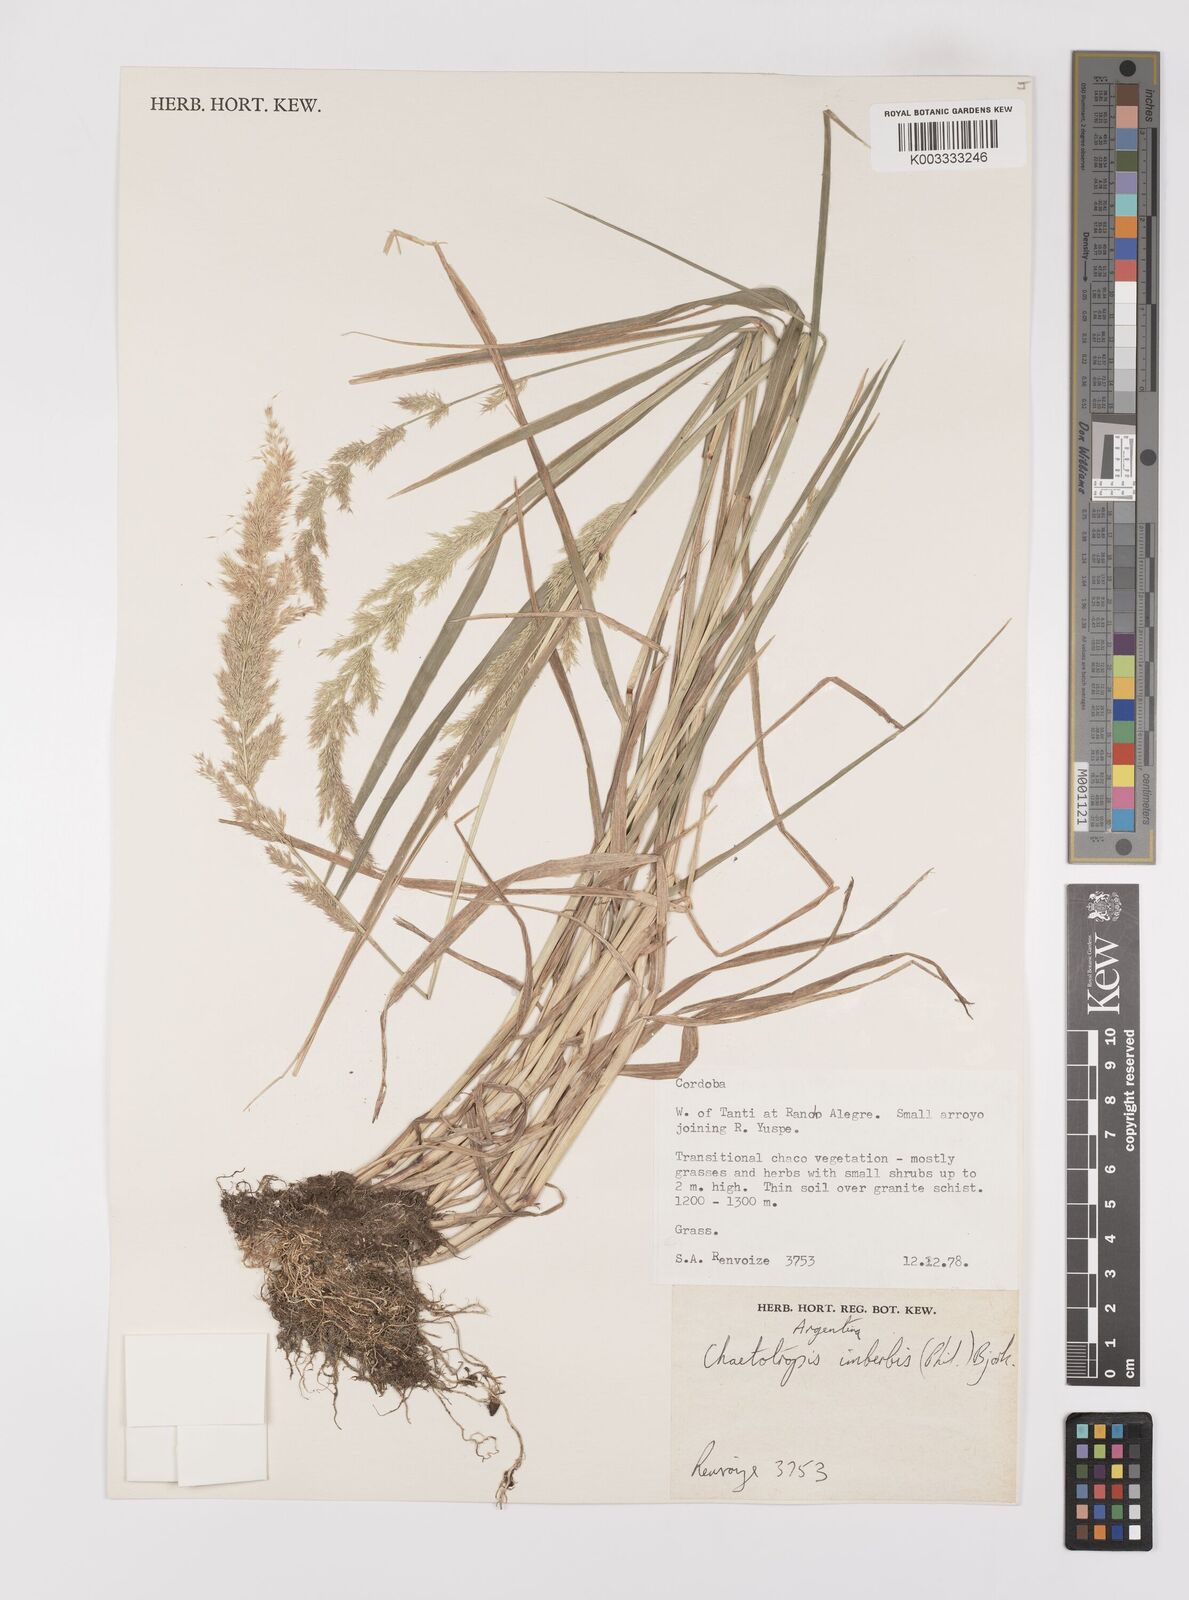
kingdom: Plantae
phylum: Tracheophyta
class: Liliopsida
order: Poales
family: Poaceae
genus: Polypogon
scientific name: Polypogon imberbis
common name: Beardless rabbitsfoot grass
